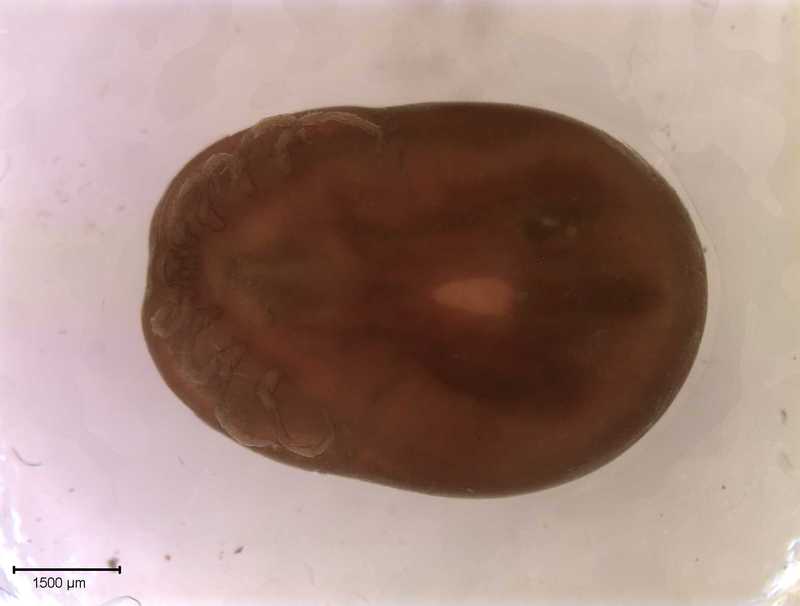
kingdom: Animalia
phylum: Arthropoda
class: Arachnida
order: Ixodida
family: Ixodidae
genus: Ixodes
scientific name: Ixodes
